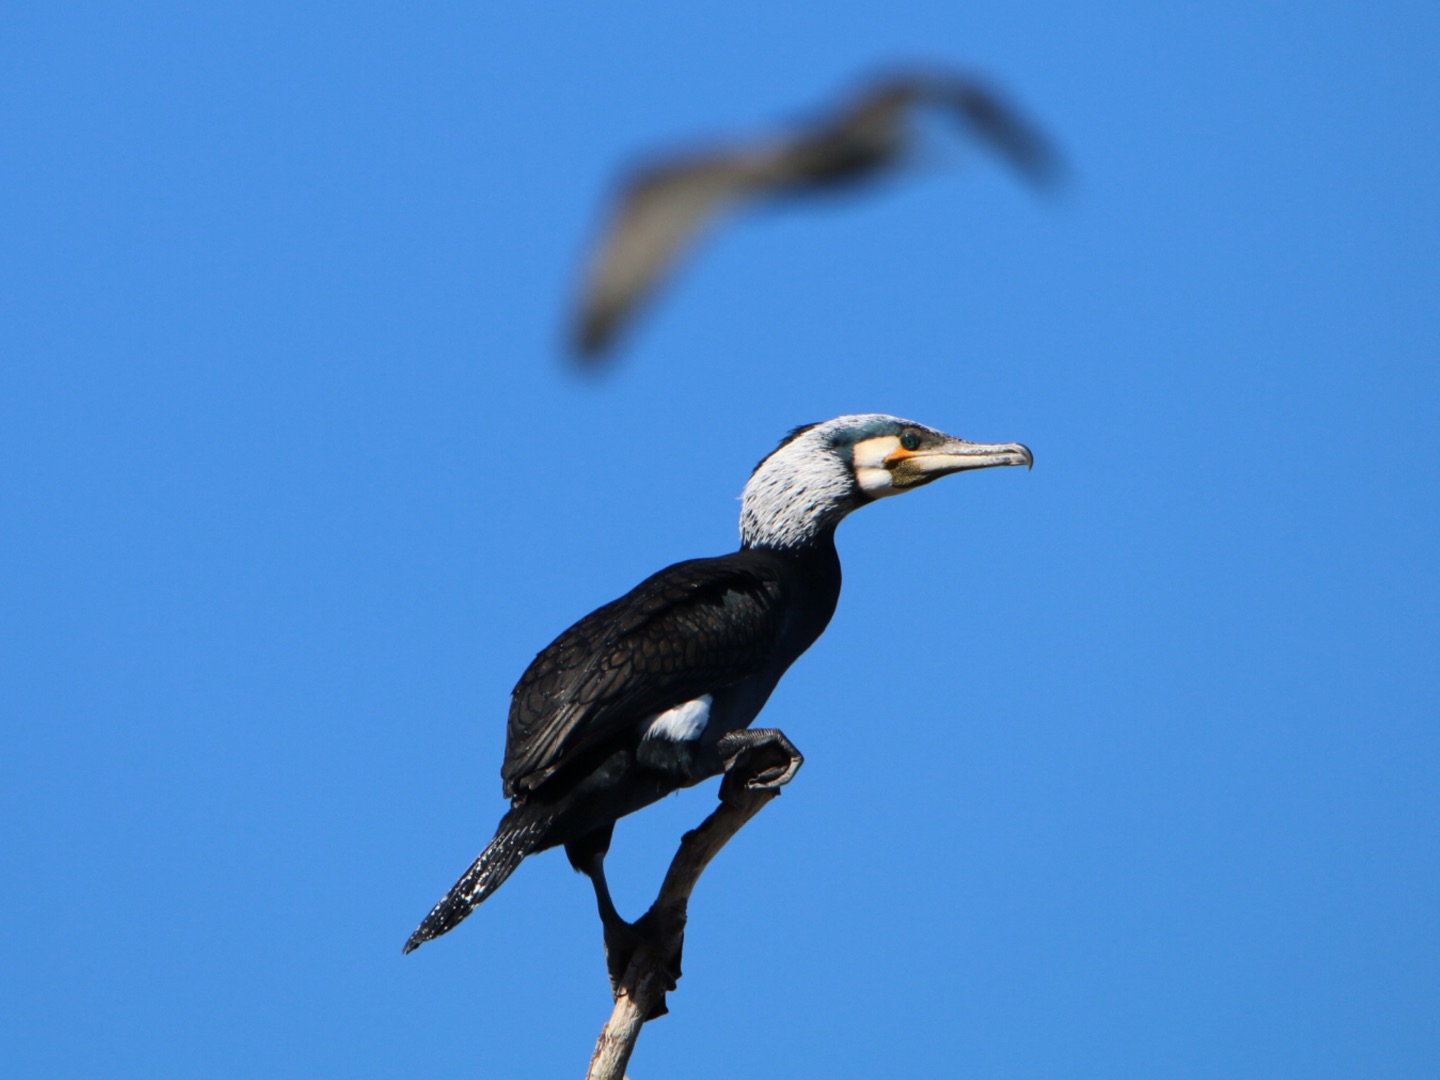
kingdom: Animalia
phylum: Chordata
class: Aves
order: Suliformes
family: Phalacrocoracidae
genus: Phalacrocorax
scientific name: Phalacrocorax carbo
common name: Skarv
